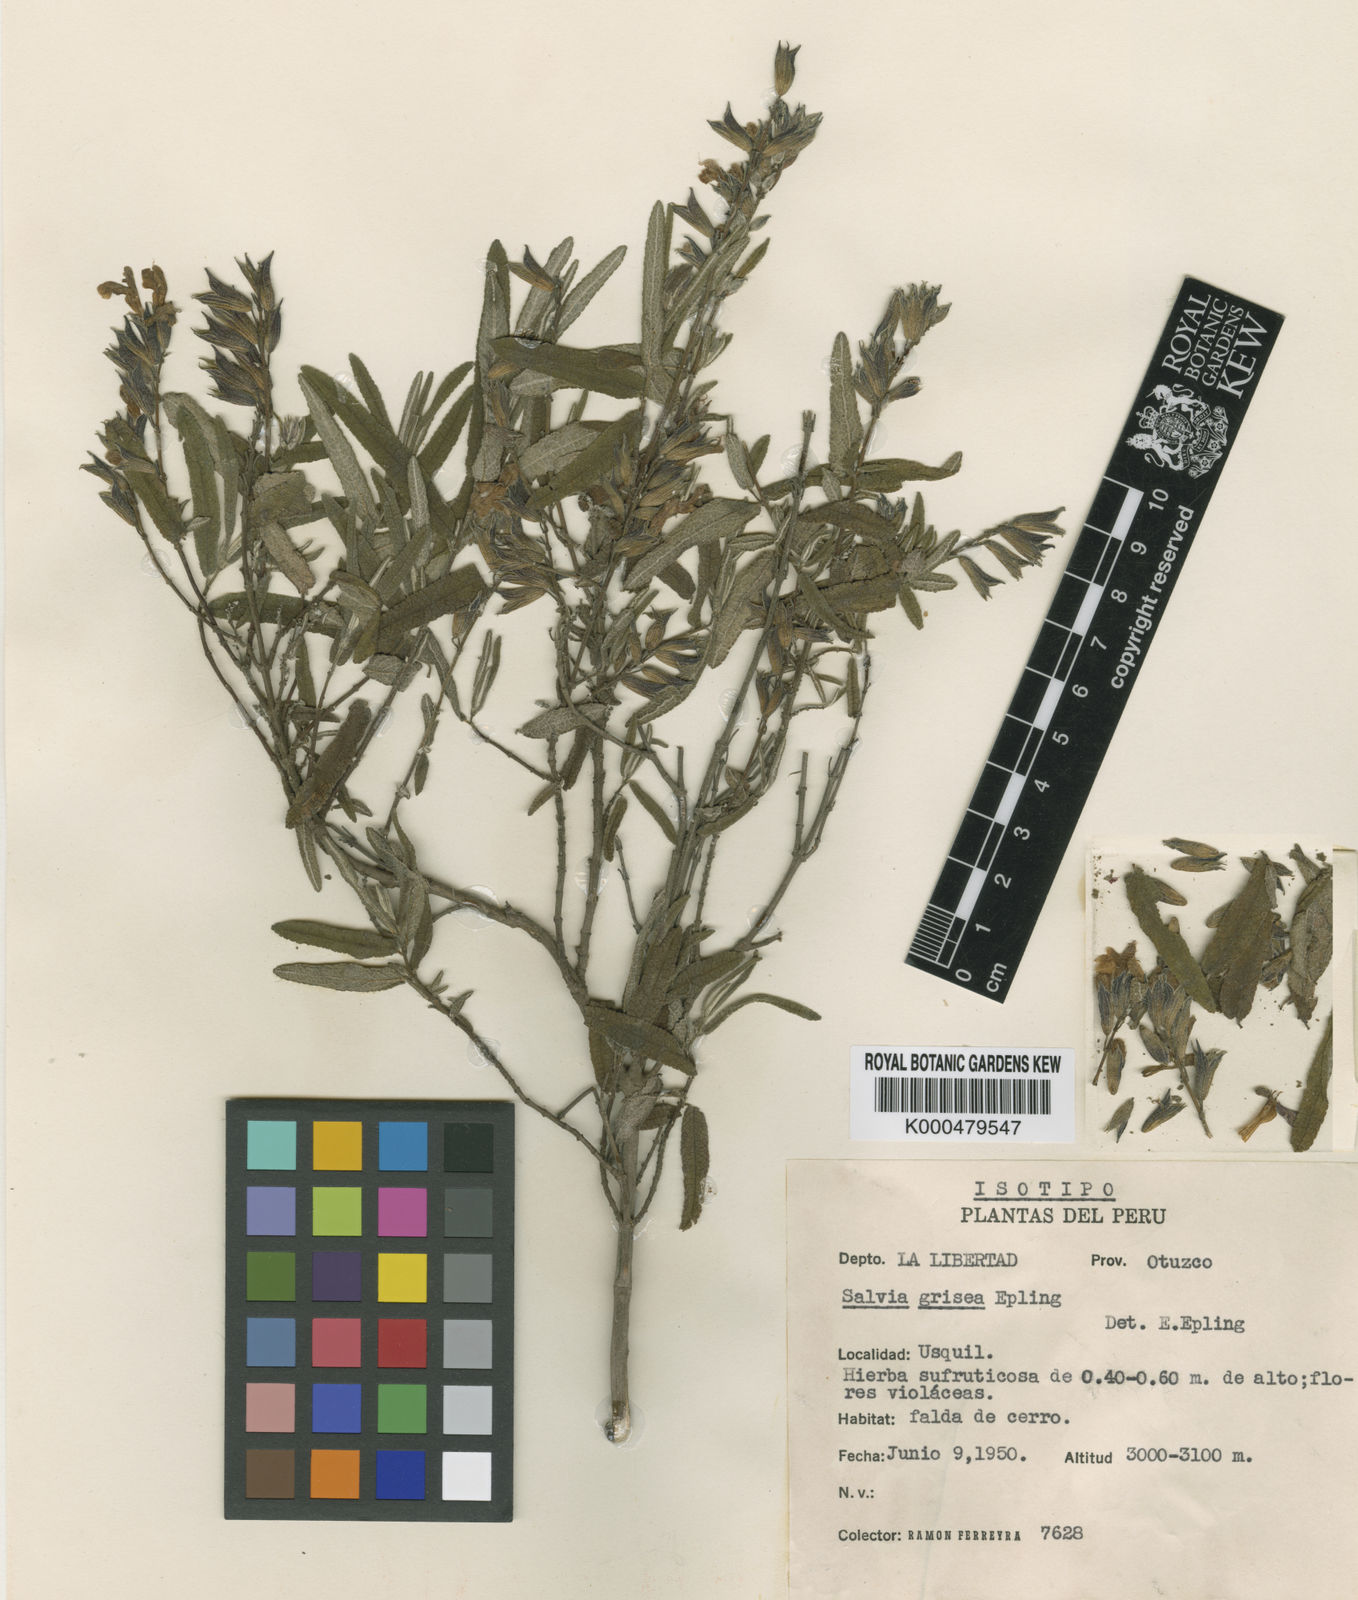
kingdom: Plantae
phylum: Tracheophyta
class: Magnoliopsida
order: Lamiales
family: Lamiaceae
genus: Salvia
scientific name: Salvia grisea
